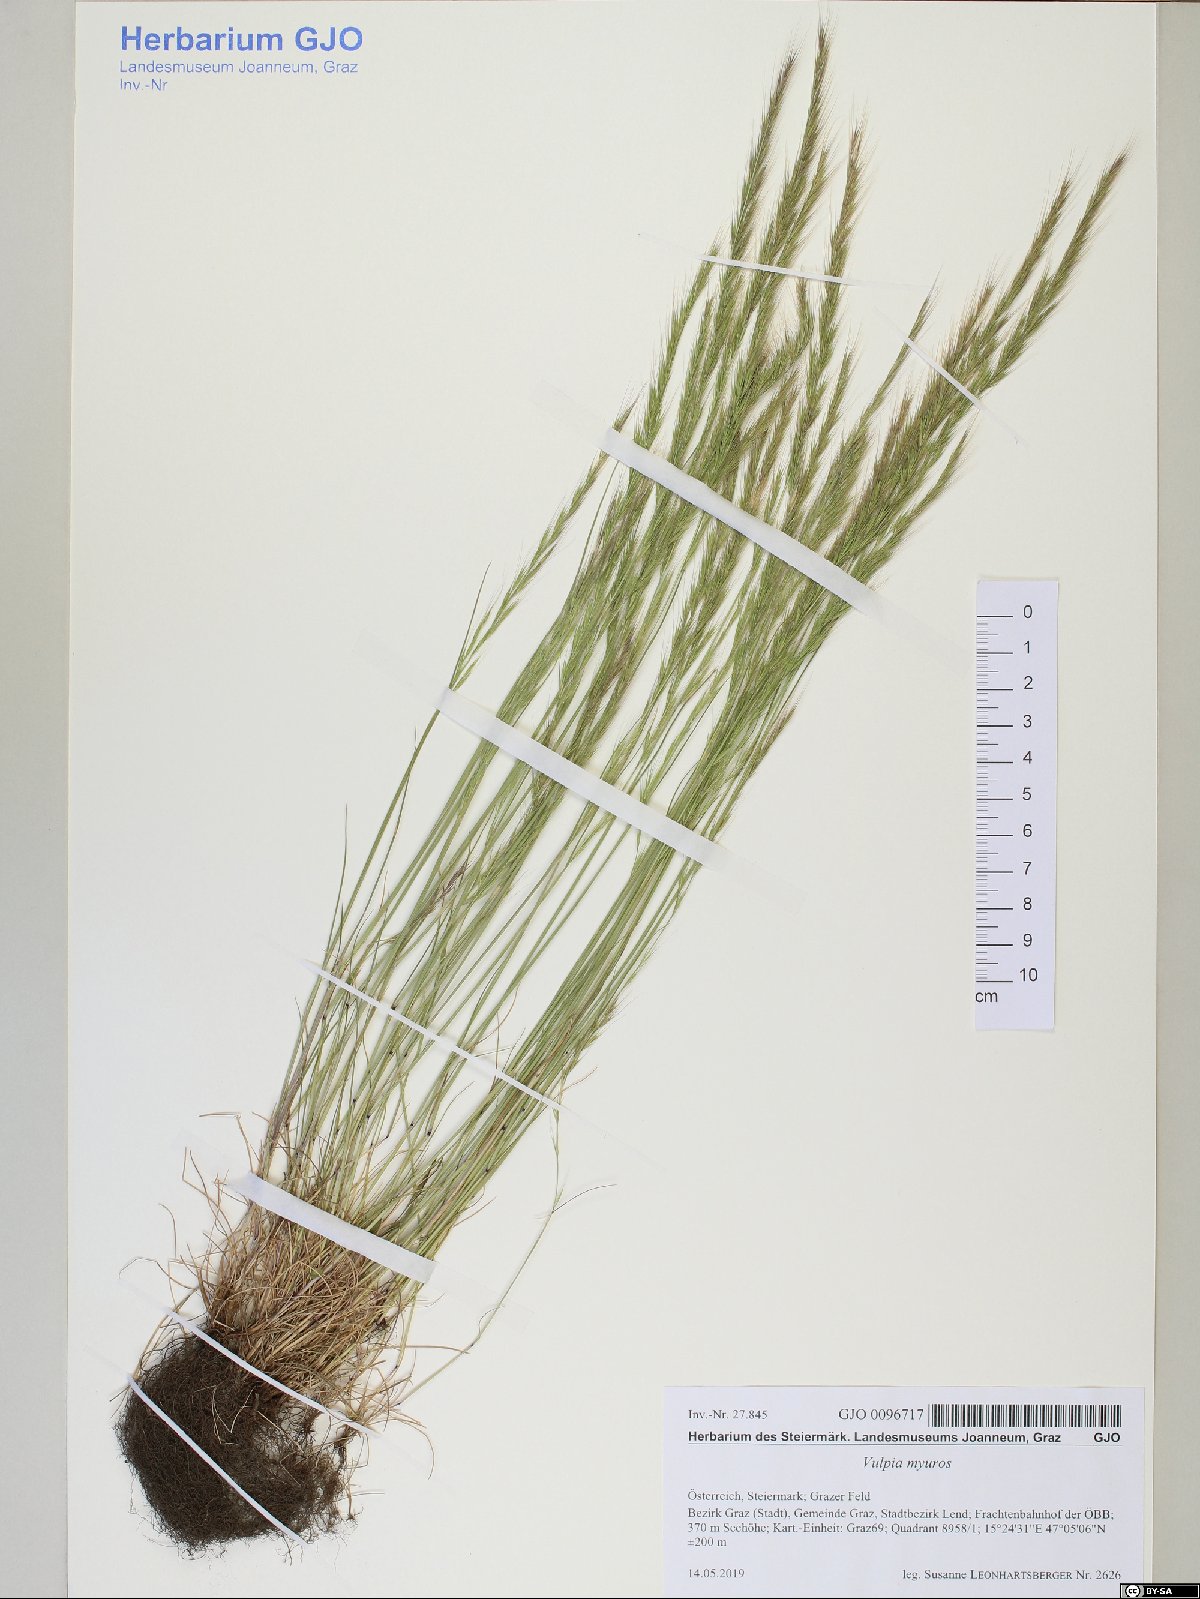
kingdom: Plantae
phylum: Tracheophyta
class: Liliopsida
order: Poales
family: Poaceae
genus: Festuca
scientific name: Festuca myuros
